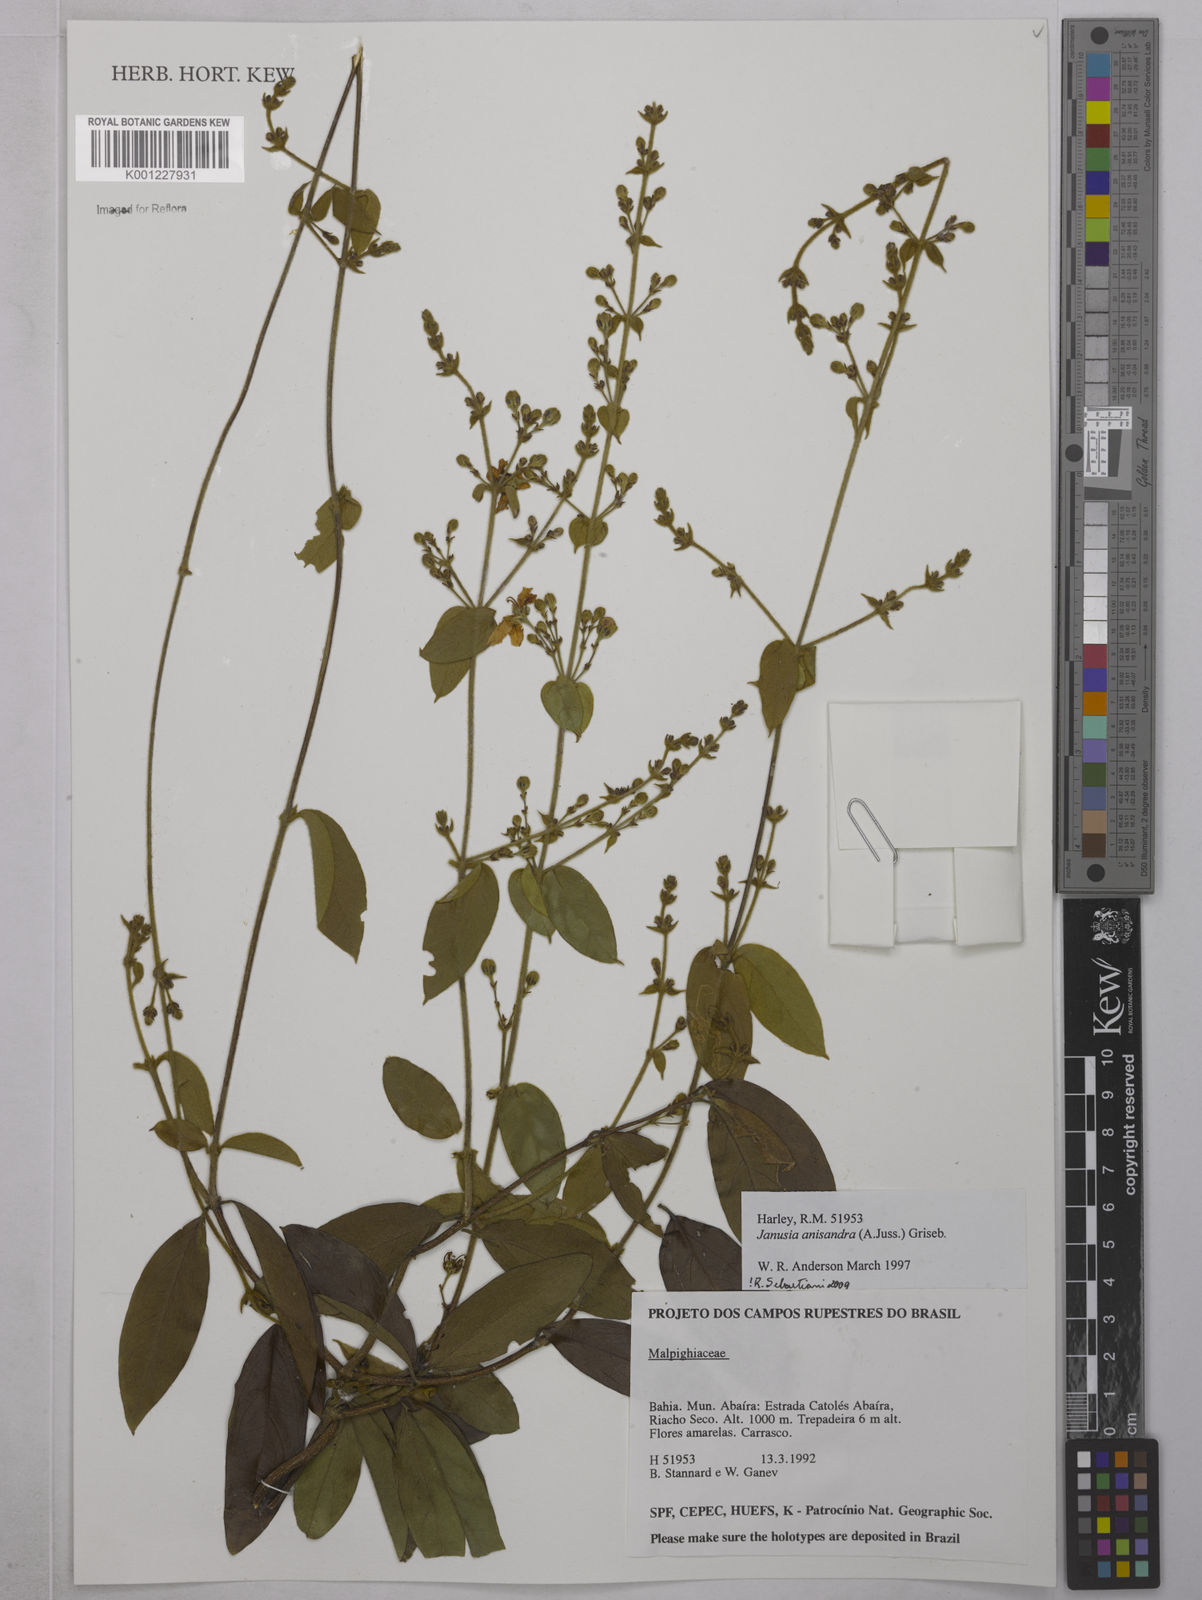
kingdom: Plantae
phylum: Tracheophyta
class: Magnoliopsida
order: Malpighiales
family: Malpighiaceae
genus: Janusia
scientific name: Janusia anisandra
